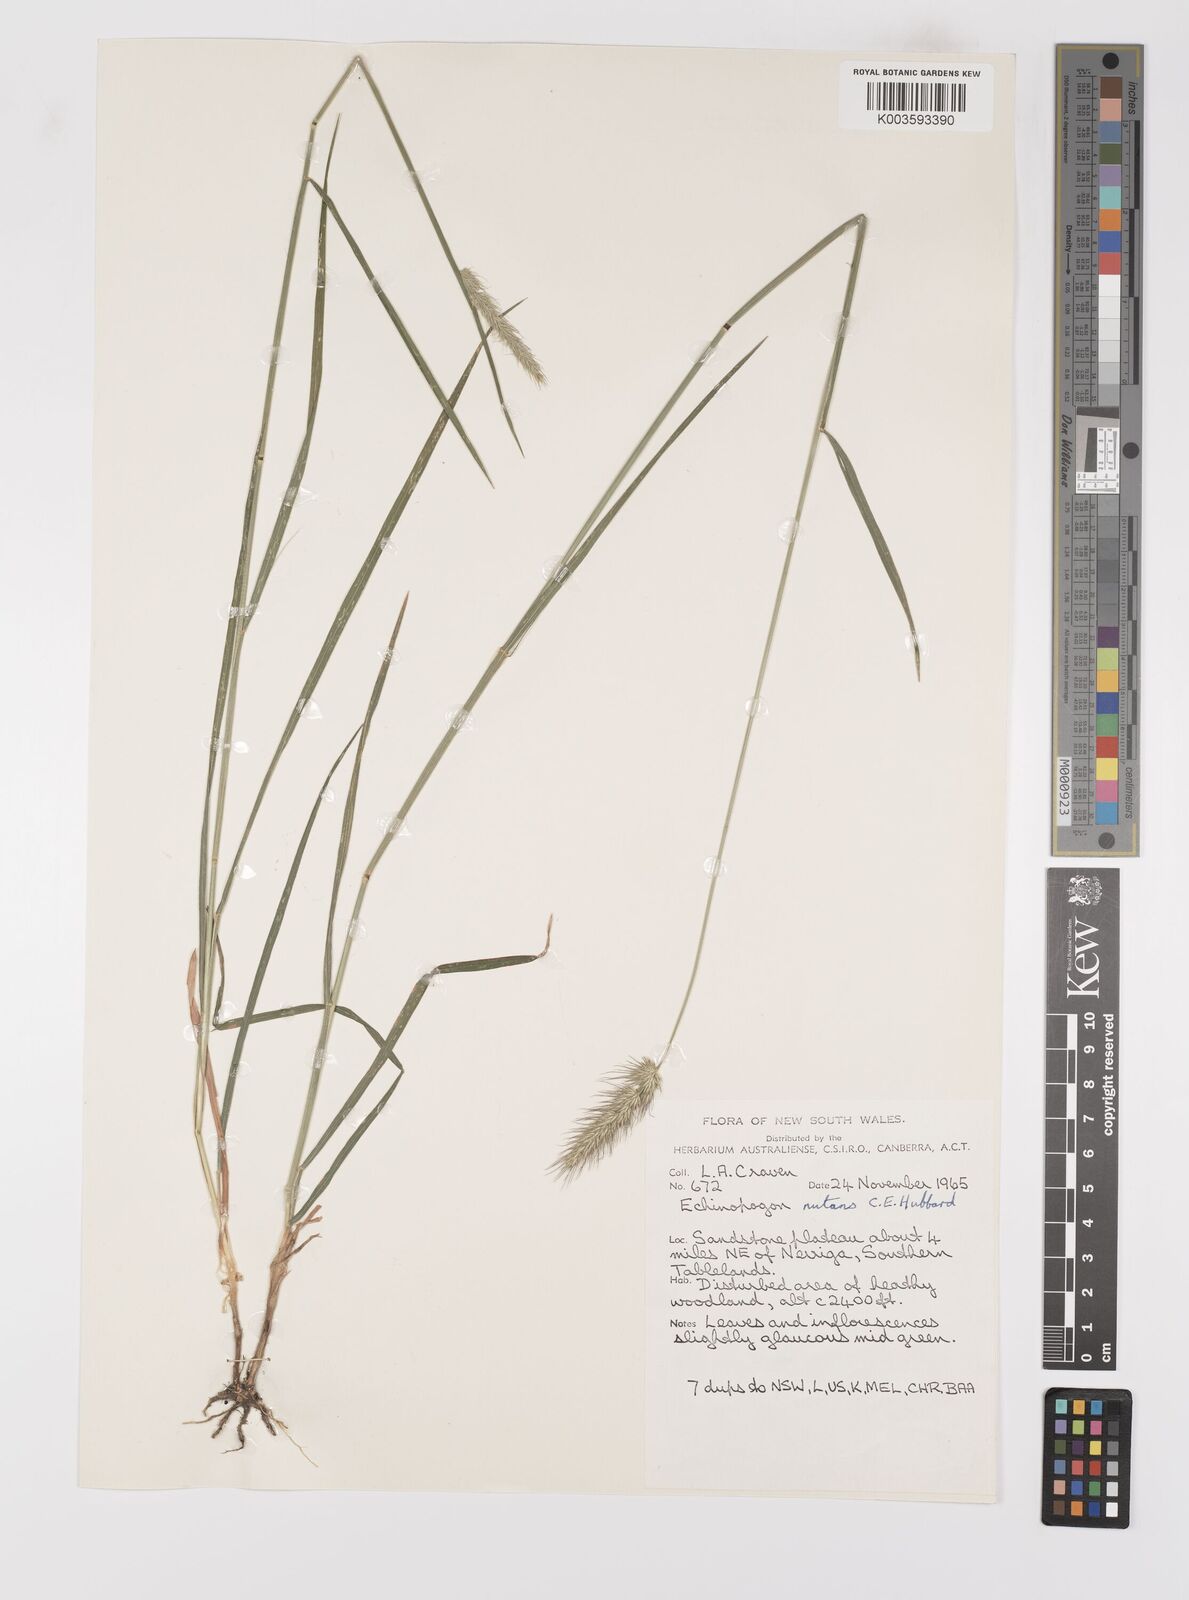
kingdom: Plantae
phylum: Tracheophyta
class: Liliopsida
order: Poales
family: Poaceae
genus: Echinopogon
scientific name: Echinopogon nutans
